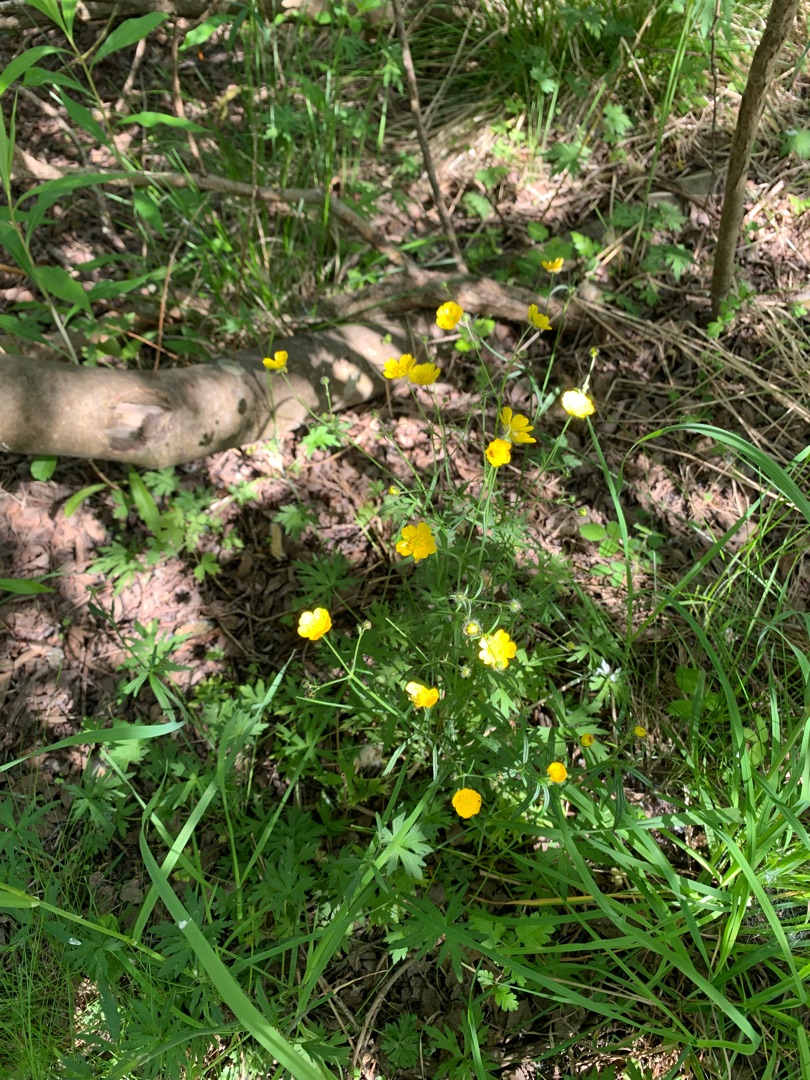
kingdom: Plantae
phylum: Tracheophyta
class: Magnoliopsida
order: Ranunculales
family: Ranunculaceae
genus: Ranunculus
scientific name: Ranunculus acris
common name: Bidende ranunkel
